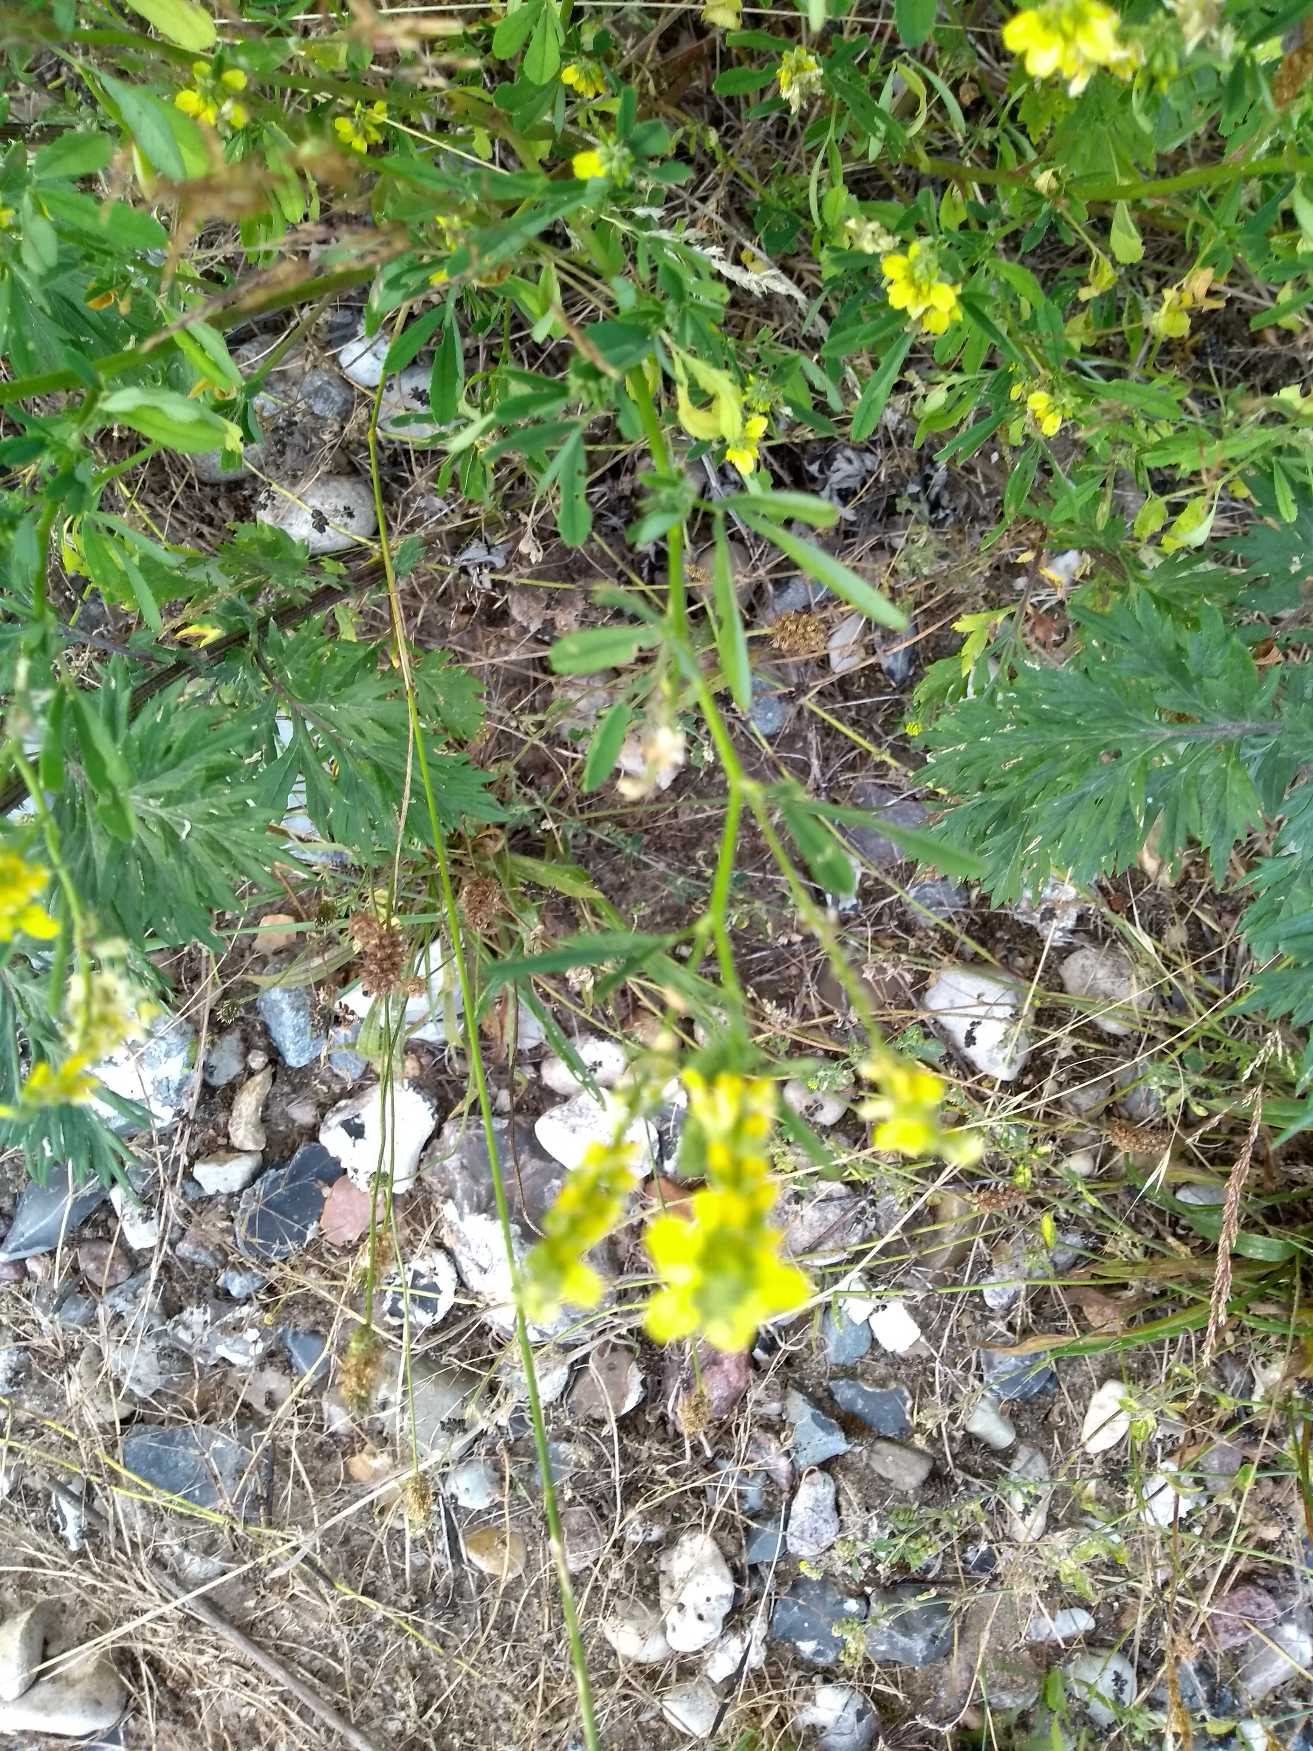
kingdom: Plantae
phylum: Tracheophyta
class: Magnoliopsida
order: Fabales
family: Fabaceae
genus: Melilotus
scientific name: Melilotus
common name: Stenkløverslægten
